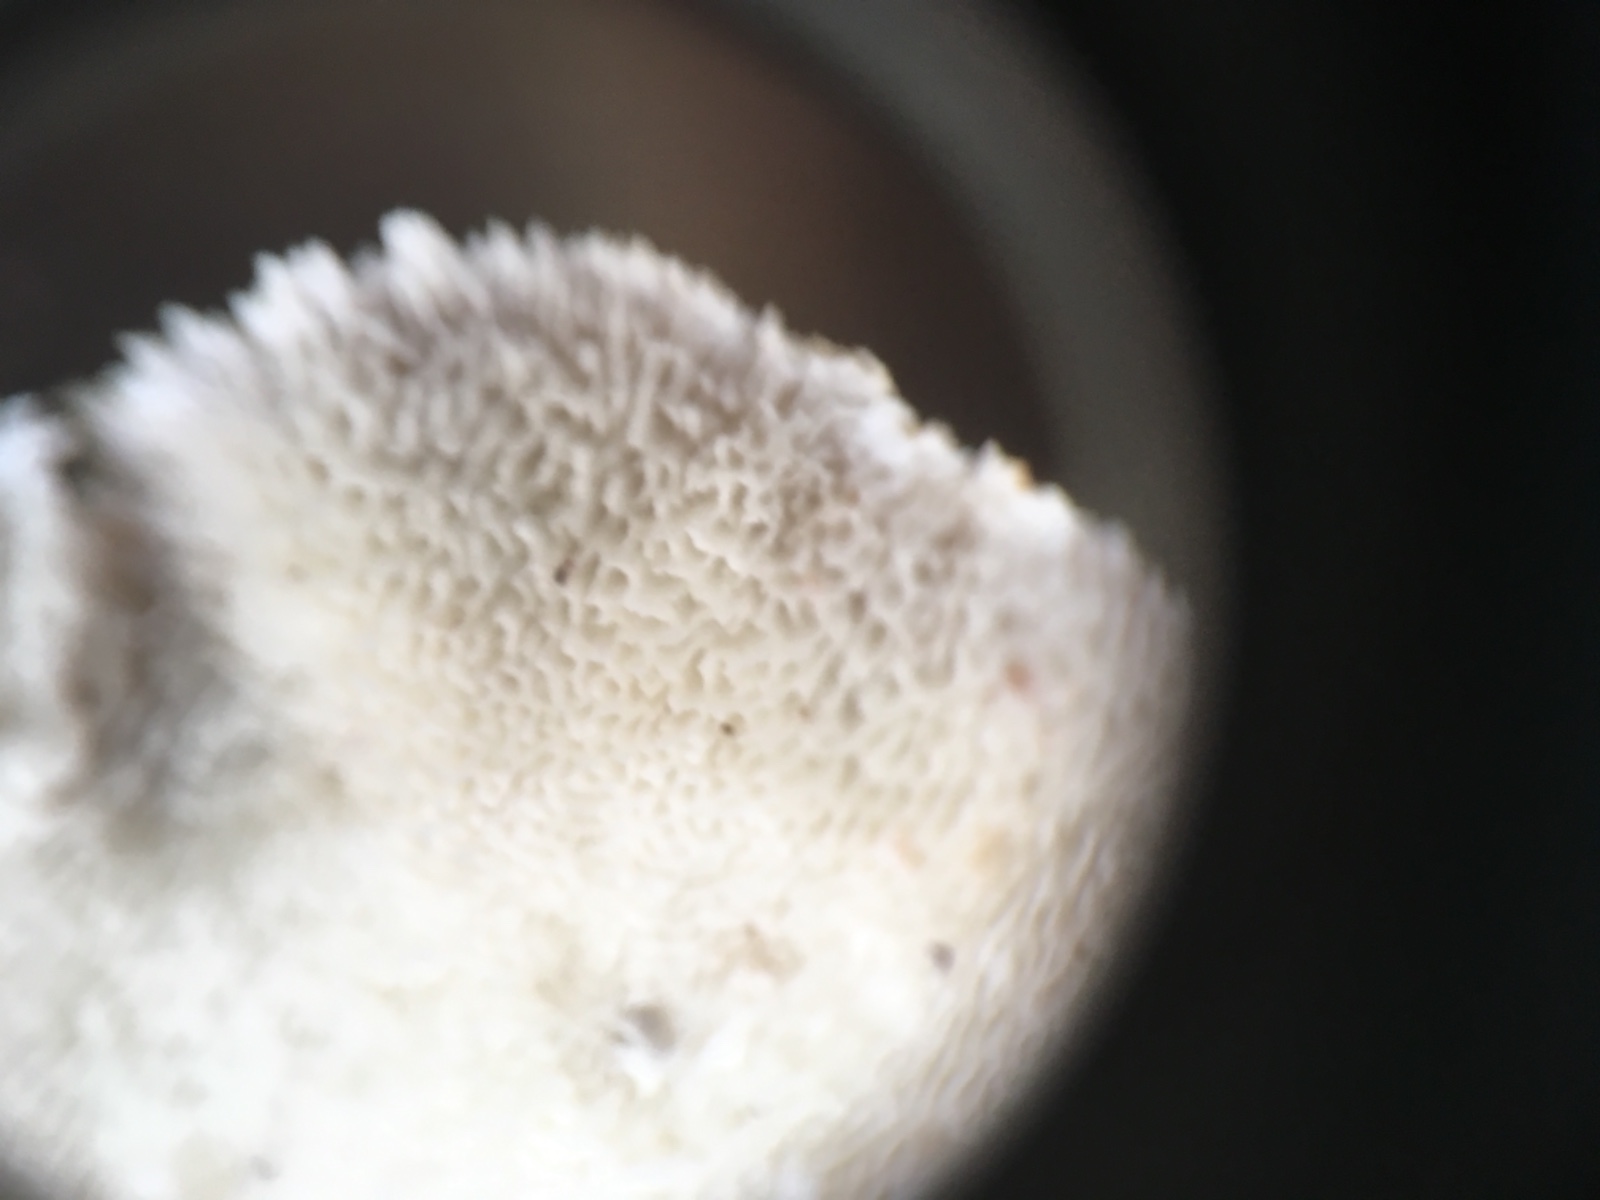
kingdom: Fungi
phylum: Basidiomycota
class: Agaricomycetes
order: Polyporales
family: Polyporaceae
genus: Trametes
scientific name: Trametes
